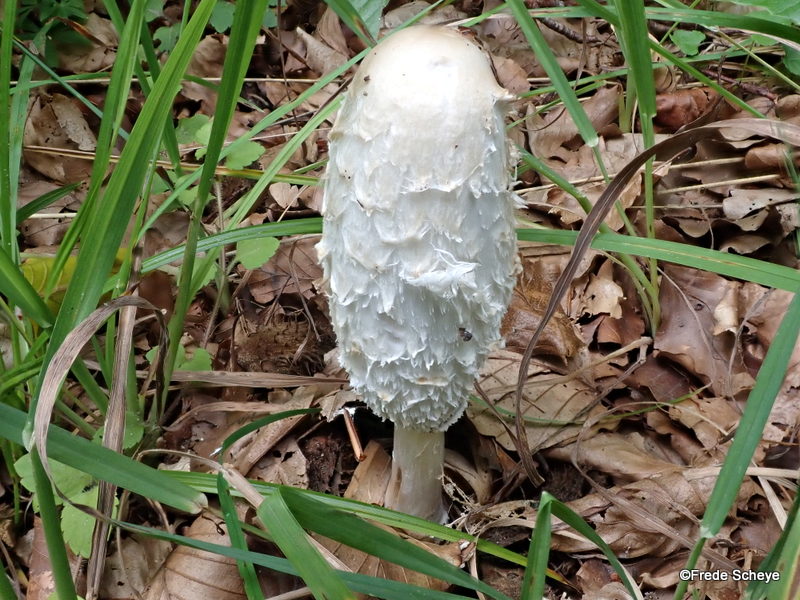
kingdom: Fungi
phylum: Basidiomycota
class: Agaricomycetes
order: Agaricales
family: Agaricaceae
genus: Coprinus
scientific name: Coprinus comatus
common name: stor parykhat
